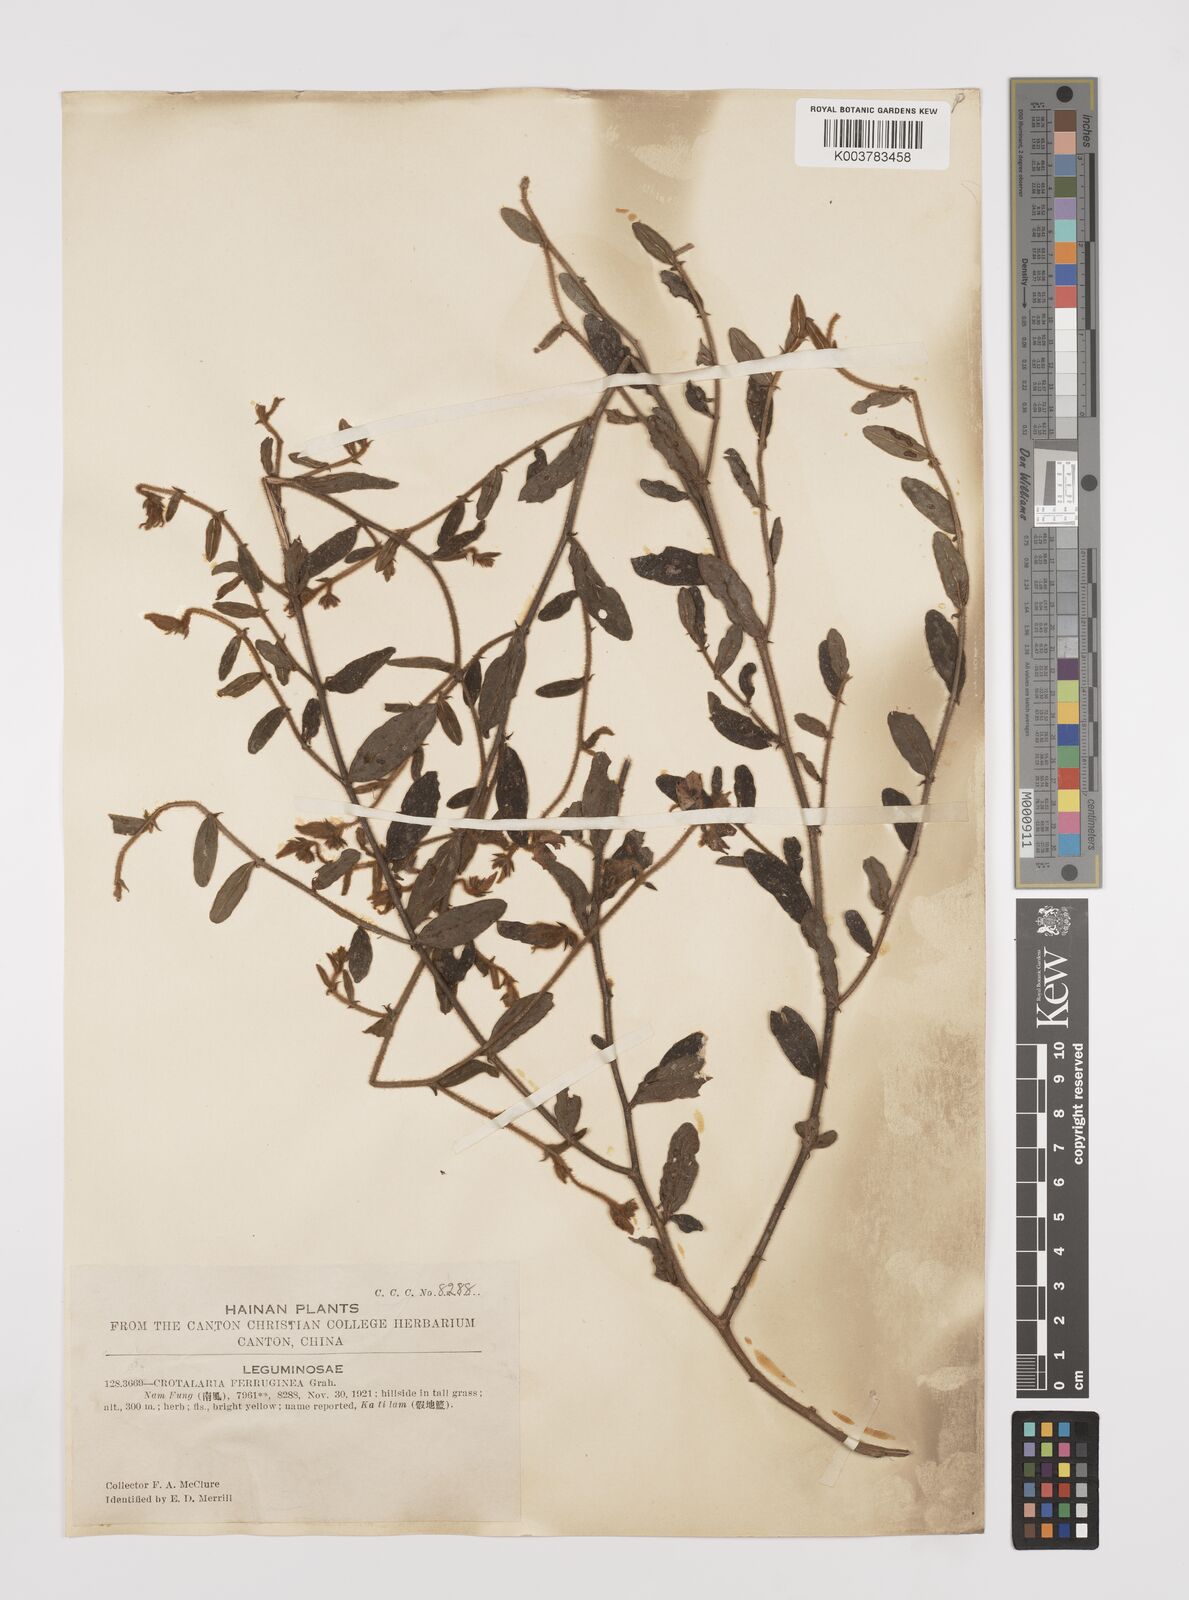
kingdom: Plantae
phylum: Tracheophyta
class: Magnoliopsida
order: Fabales
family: Fabaceae
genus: Crotalaria
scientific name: Crotalaria lejoloba
